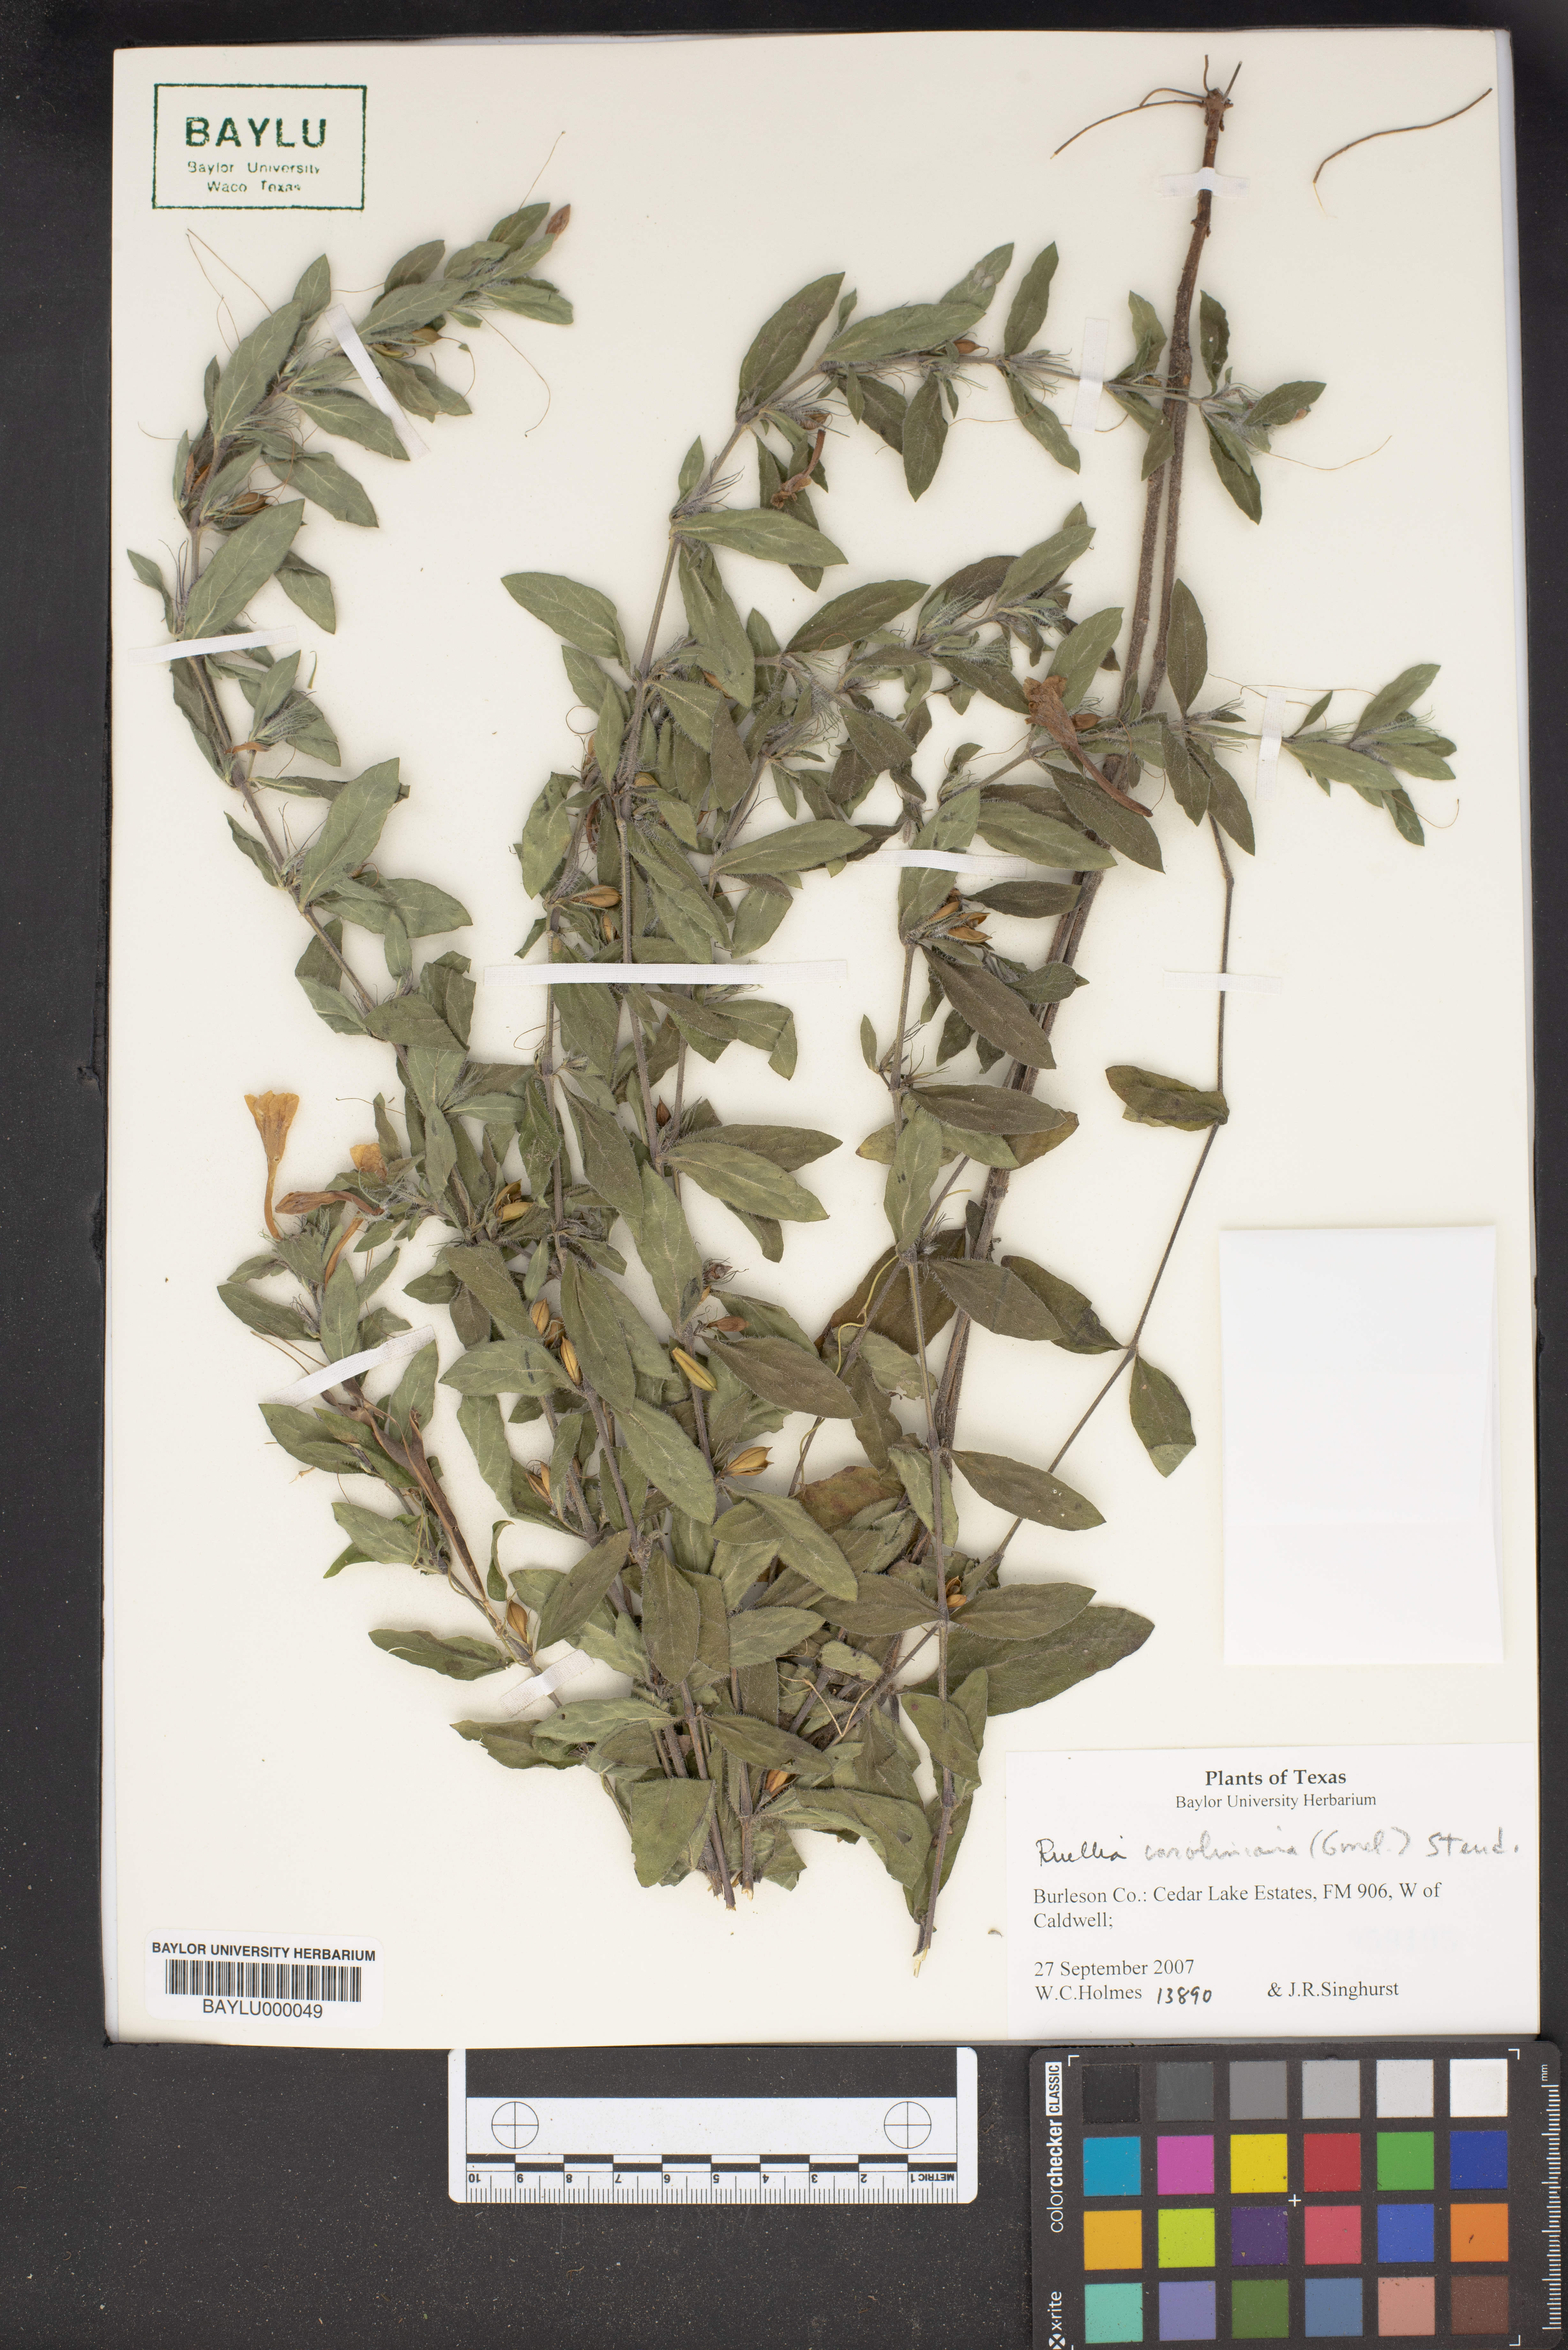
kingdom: Plantae
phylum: Tracheophyta
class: Magnoliopsida
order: Lamiales
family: Acanthaceae
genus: Ruellia
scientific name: Ruellia caroliniensis
